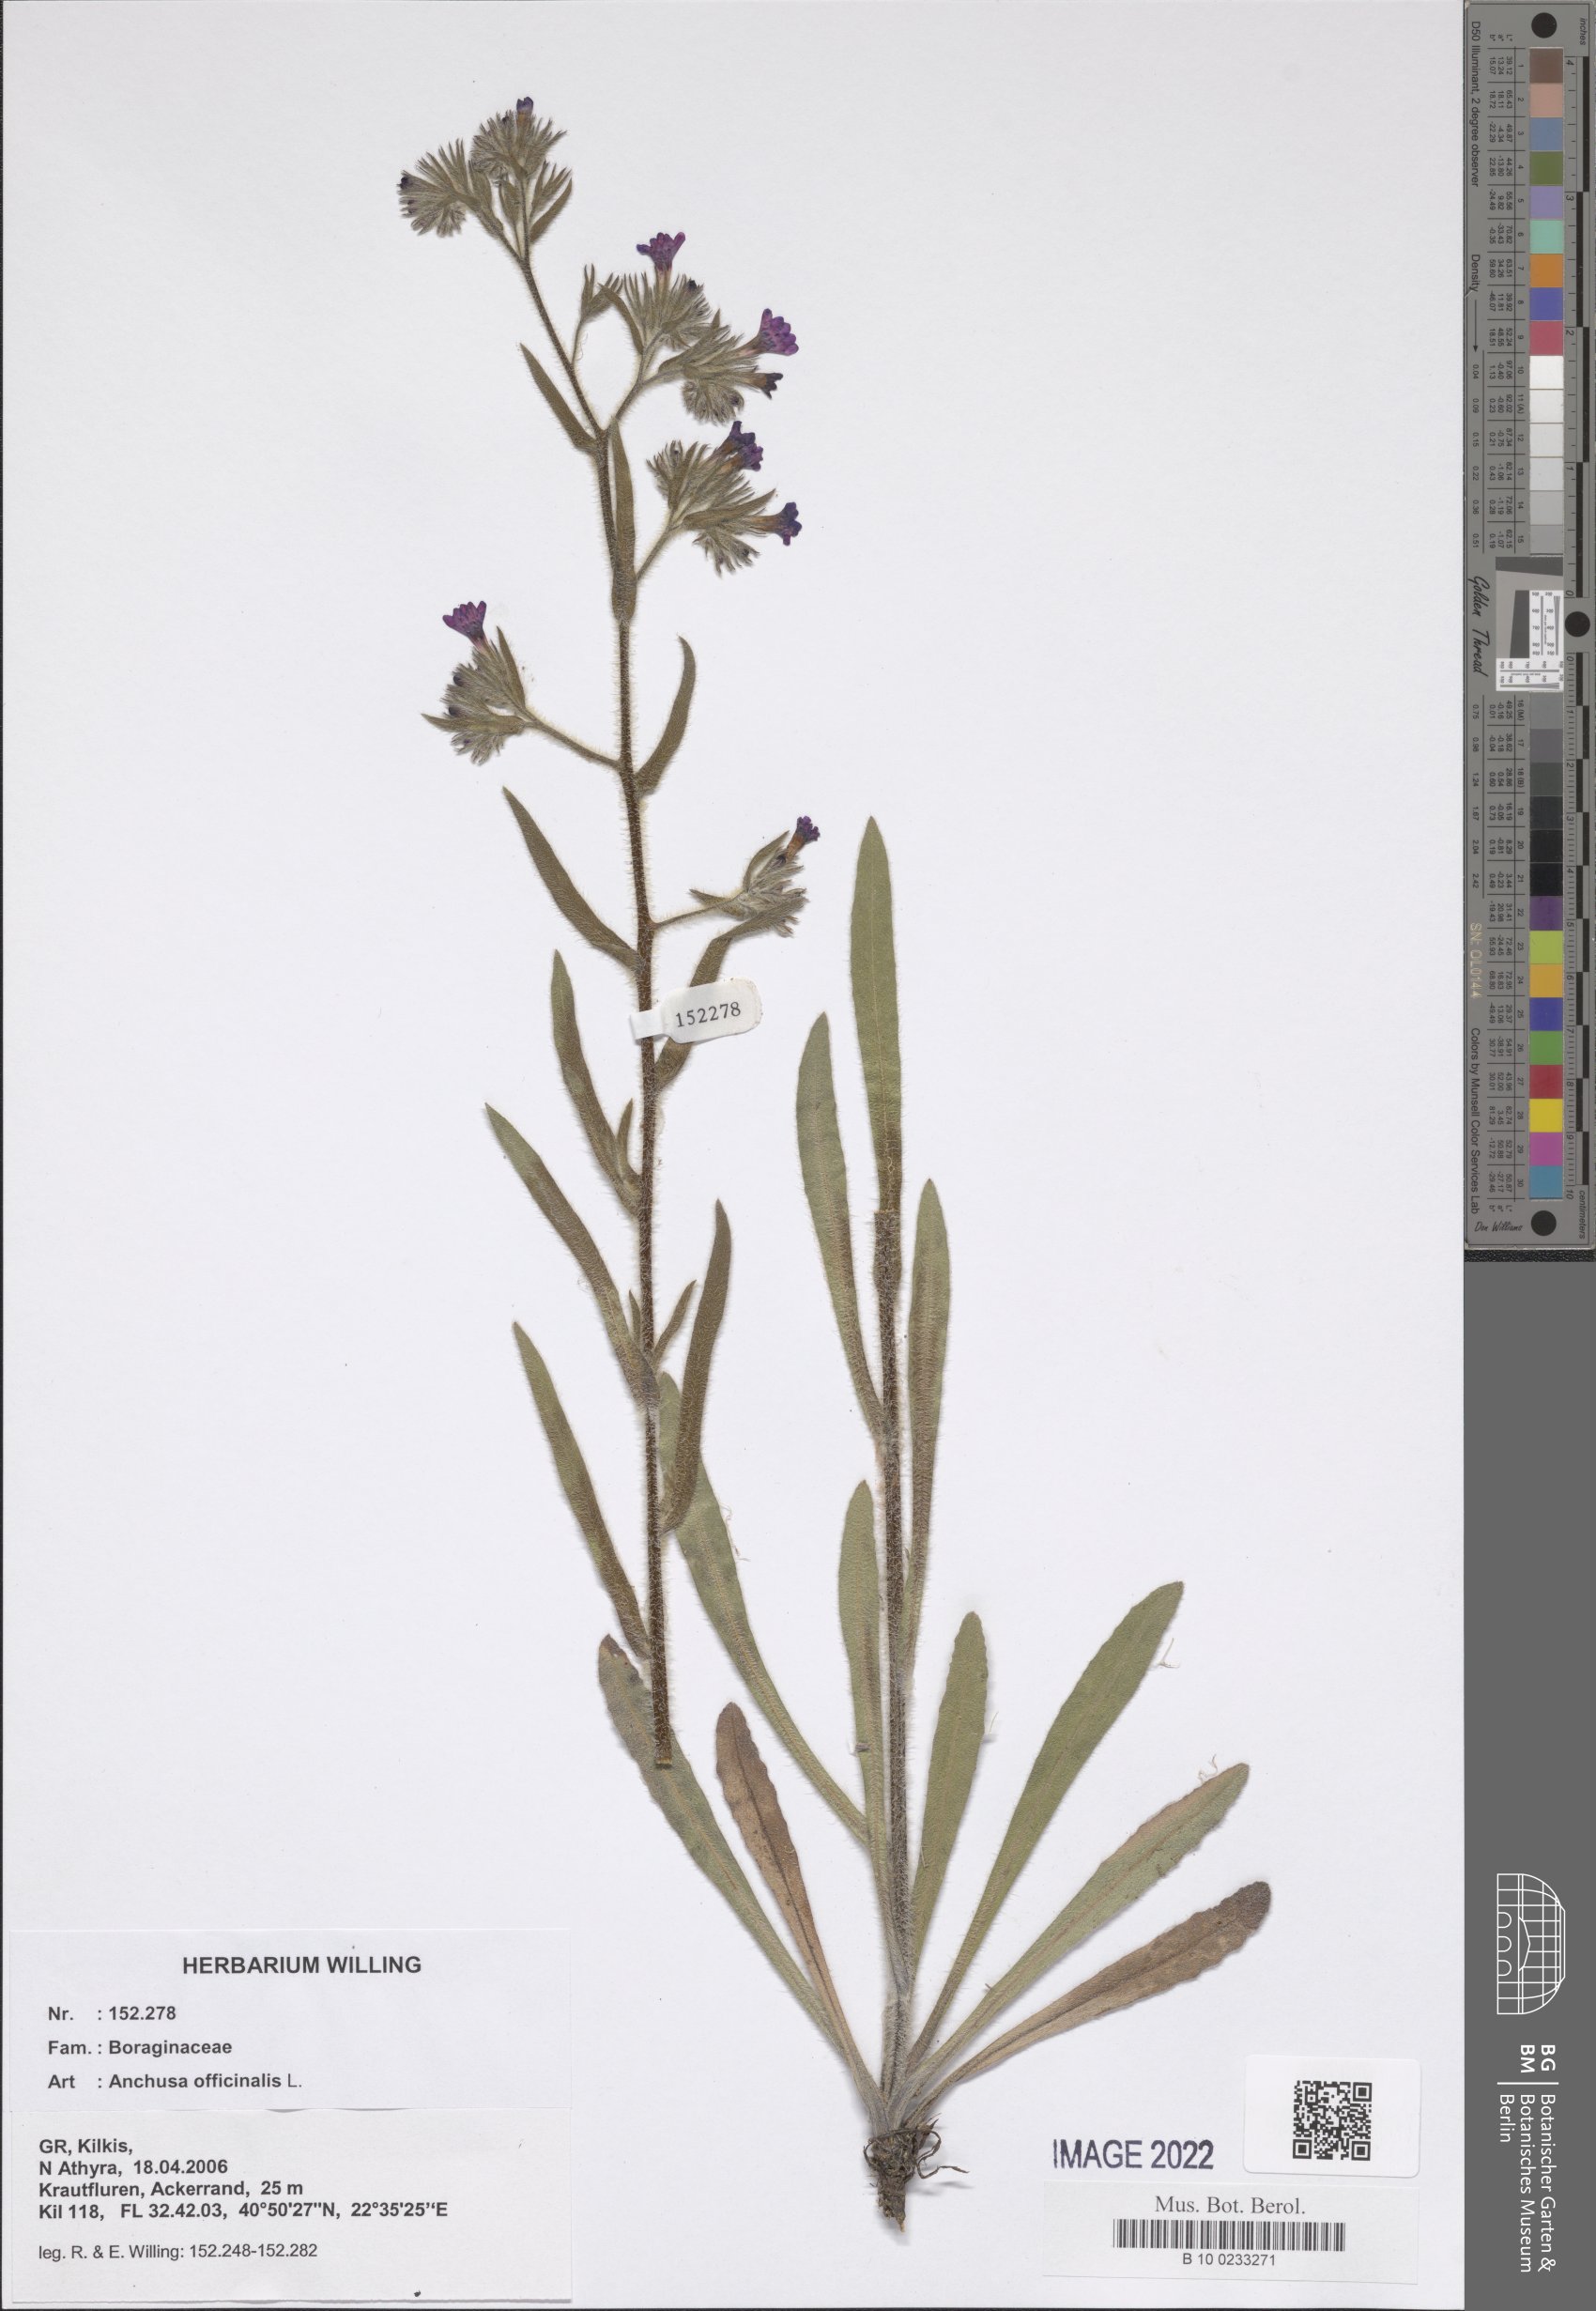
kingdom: Plantae
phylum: Tracheophyta
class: Magnoliopsida
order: Boraginales
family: Boraginaceae
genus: Anchusa
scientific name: Anchusa officinalis
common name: Alkanet
